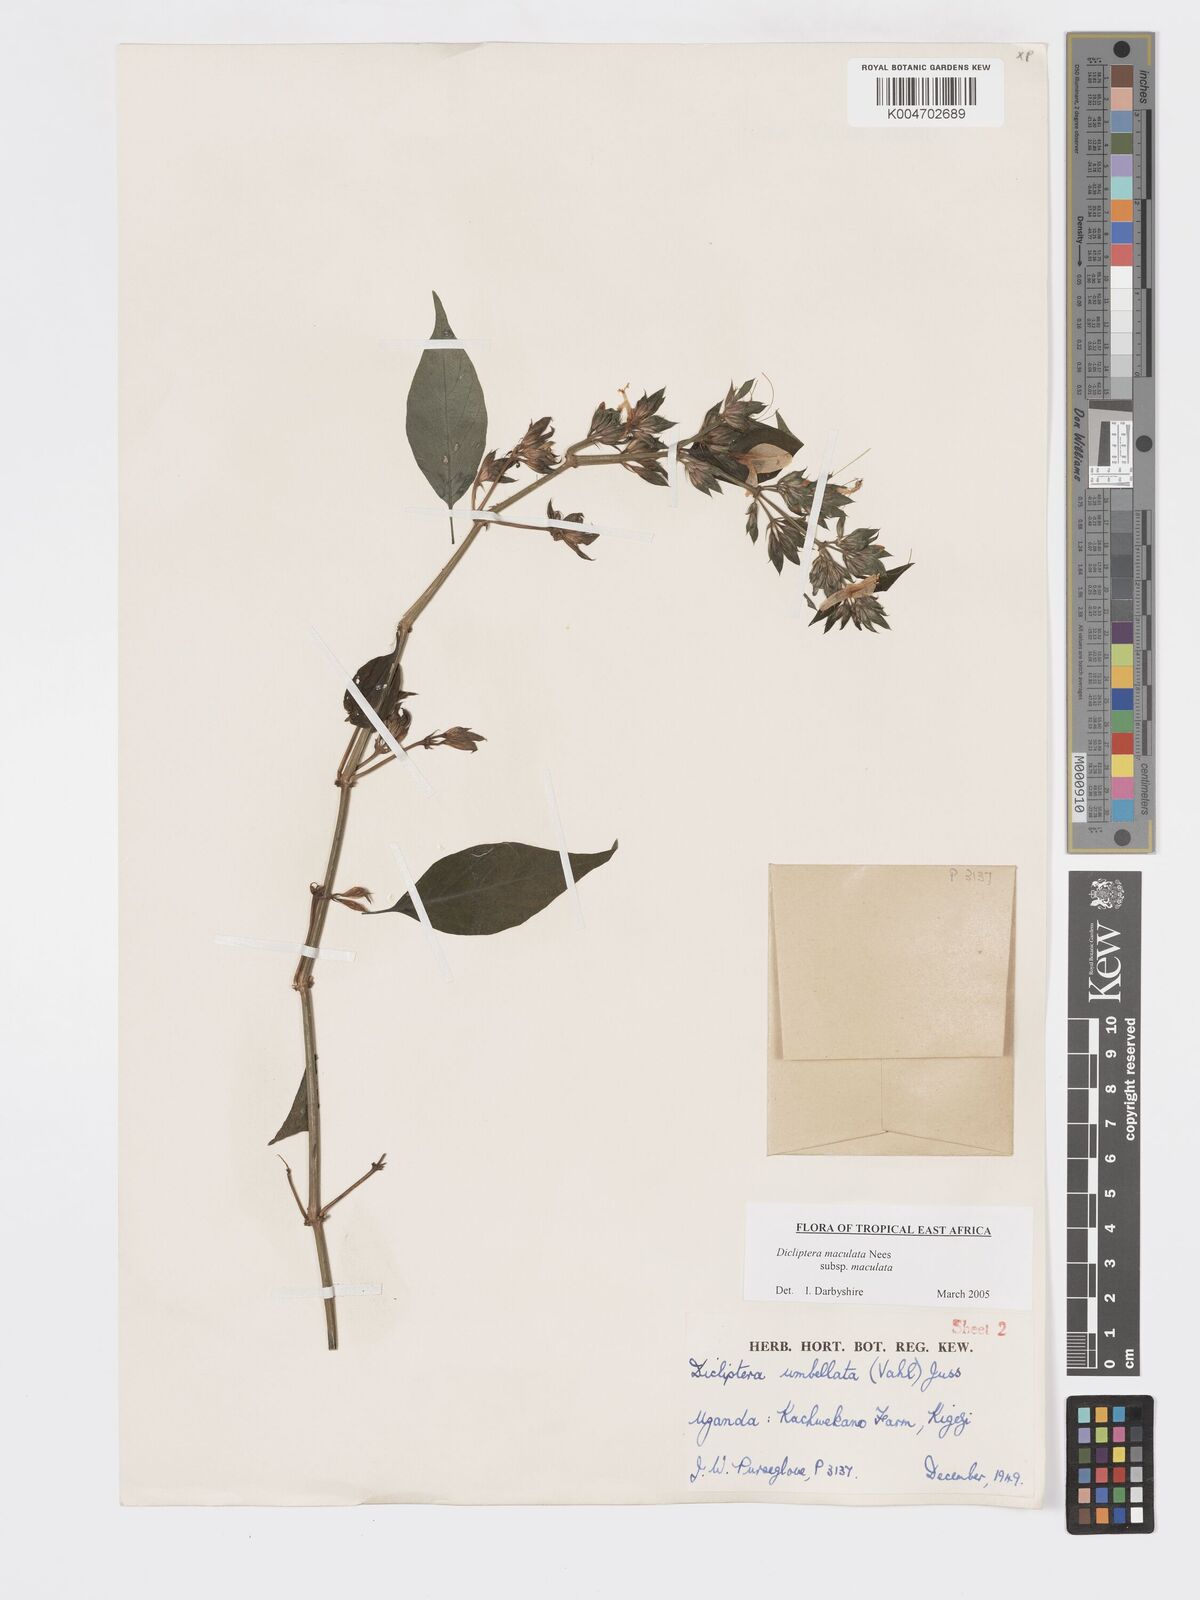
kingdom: Plantae
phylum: Tracheophyta
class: Magnoliopsida
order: Lamiales
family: Acanthaceae
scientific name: Acanthaceae
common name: Acanthaceae
